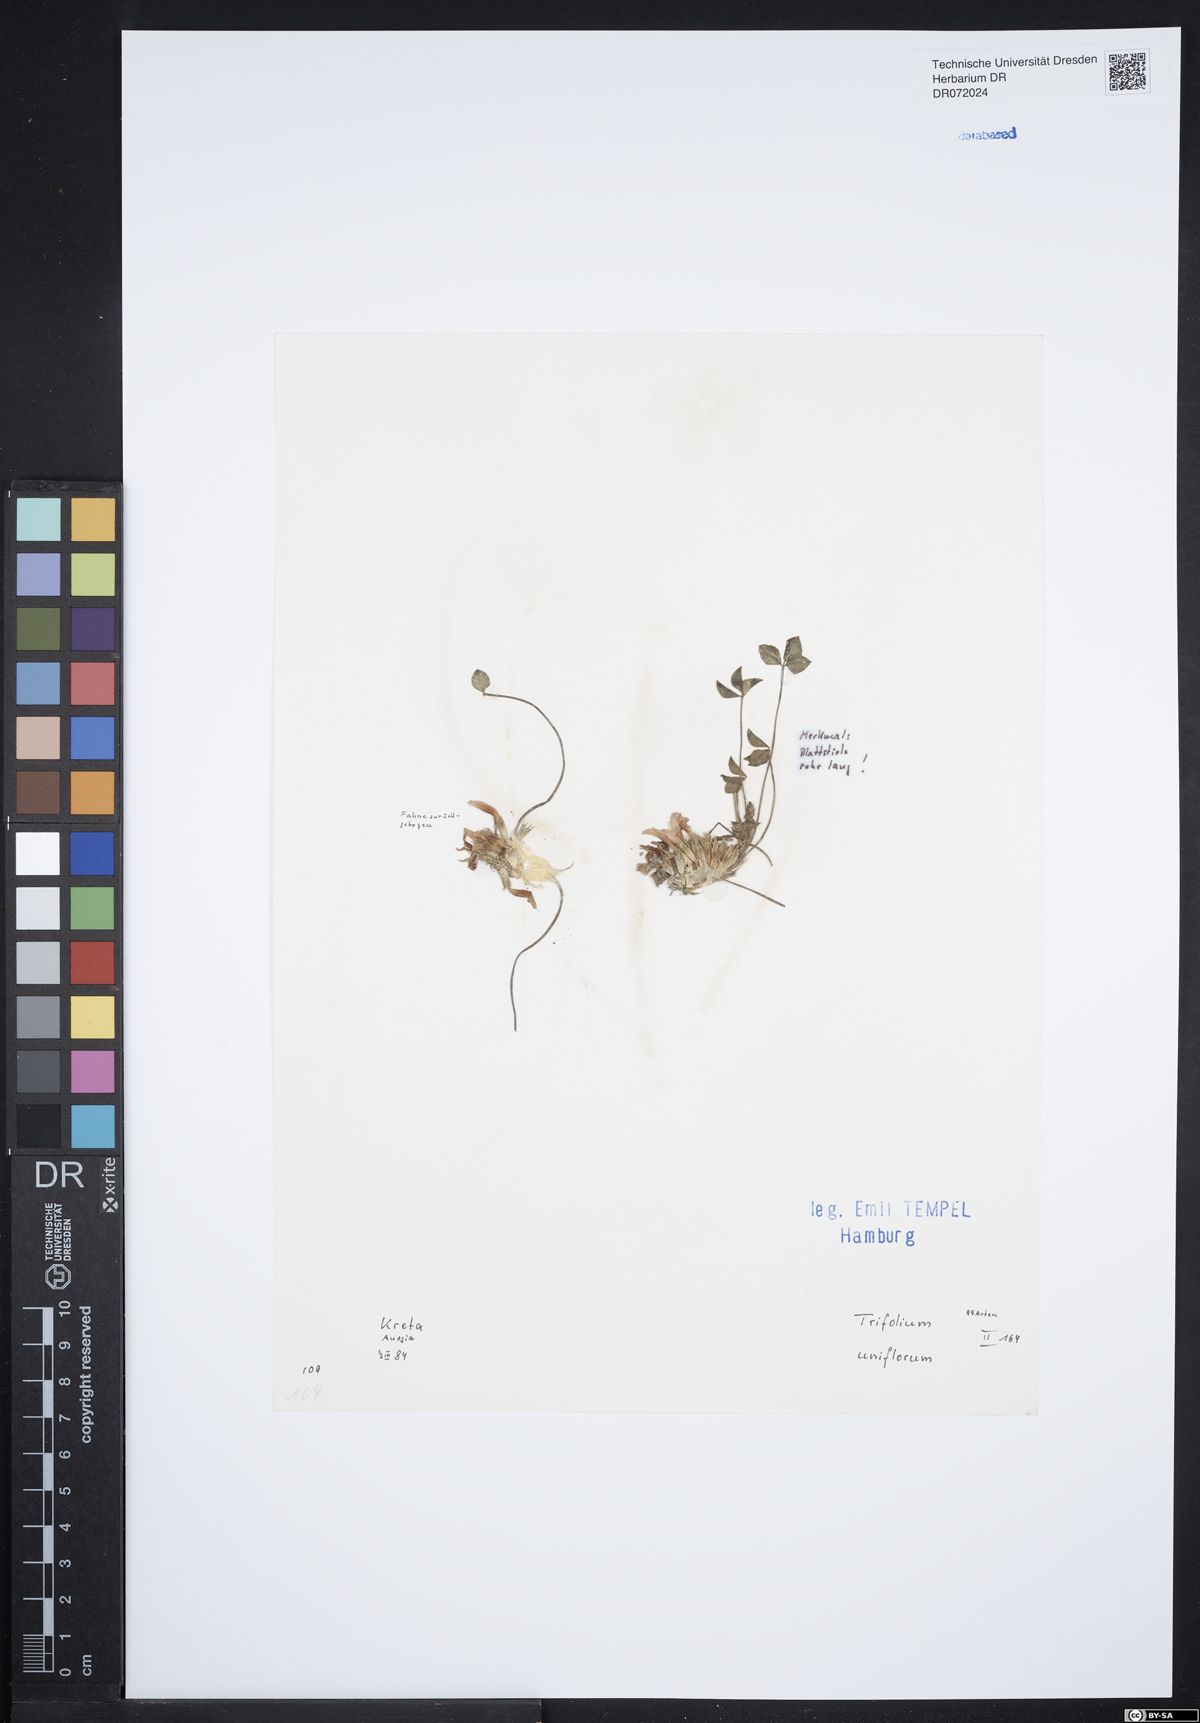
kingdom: Plantae
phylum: Tracheophyta
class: Magnoliopsida
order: Fabales
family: Fabaceae
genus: Trifolium
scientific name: Trifolium uniflorum
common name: One-flower clover
